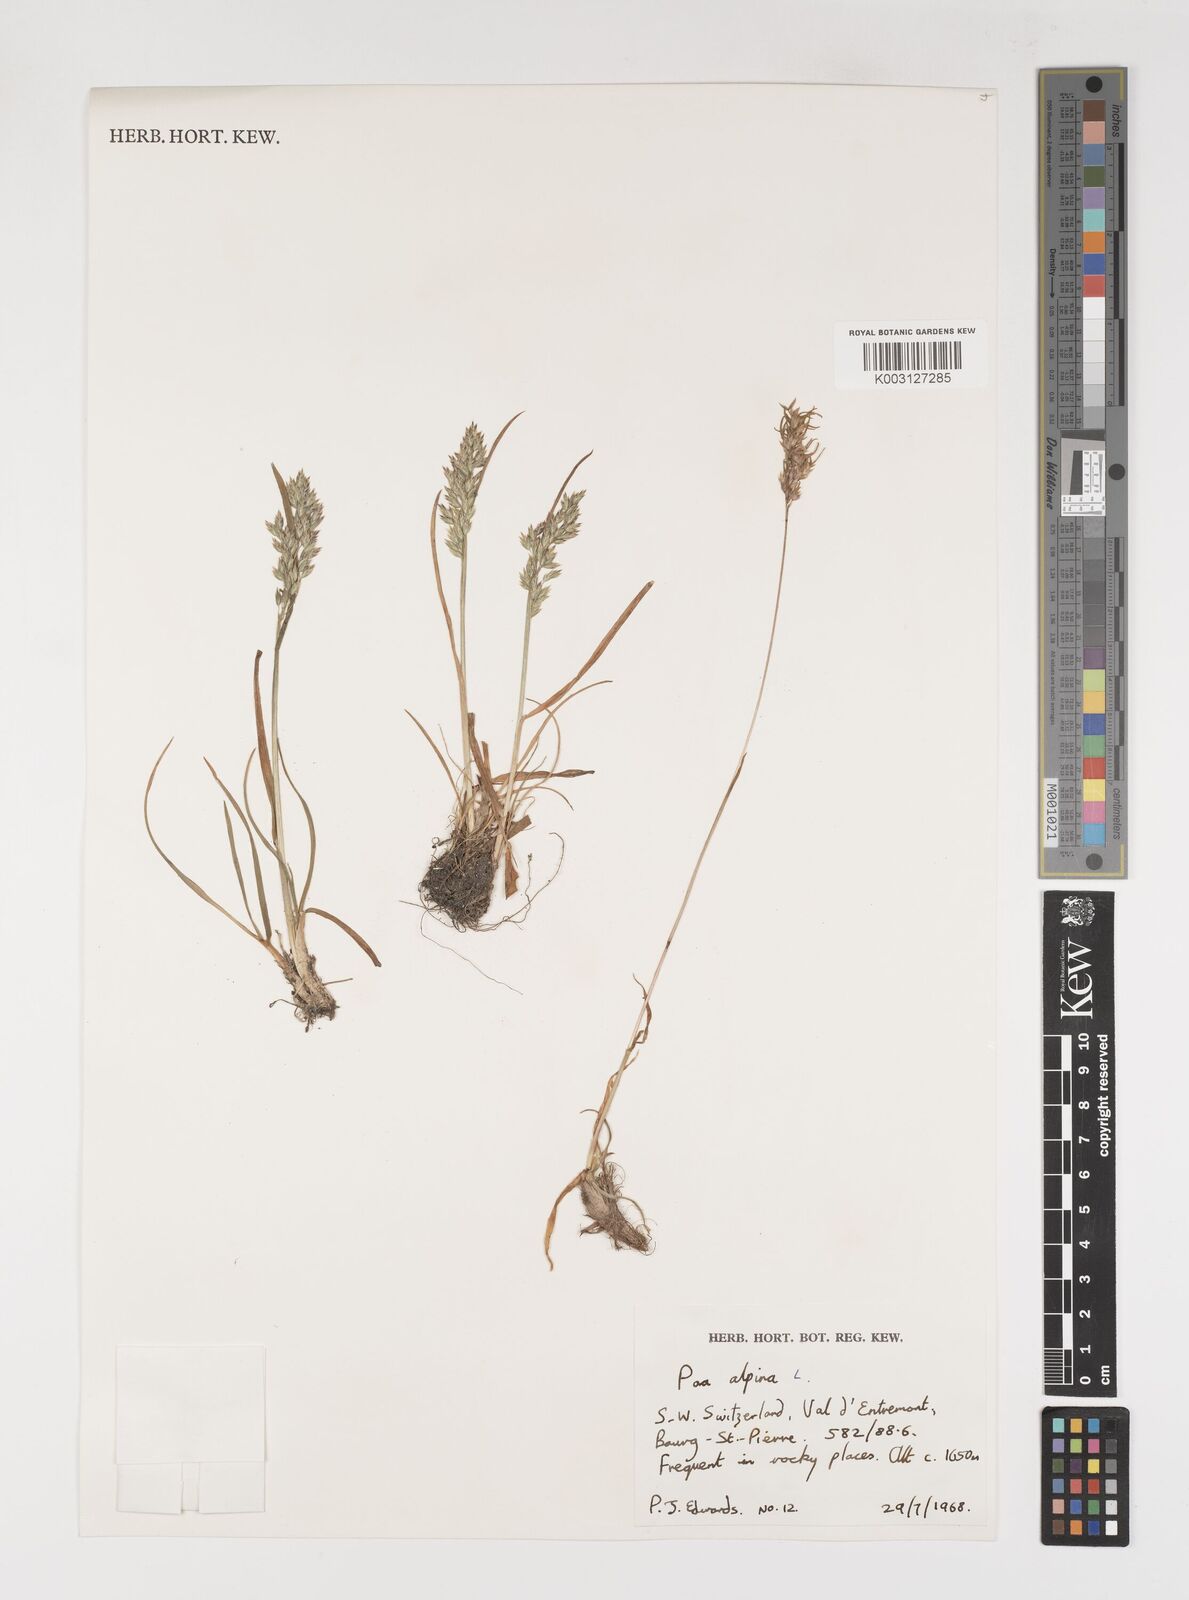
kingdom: Plantae
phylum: Tracheophyta
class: Liliopsida
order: Poales
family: Poaceae
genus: Poa
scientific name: Poa alpina
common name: Alpine bluegrass
